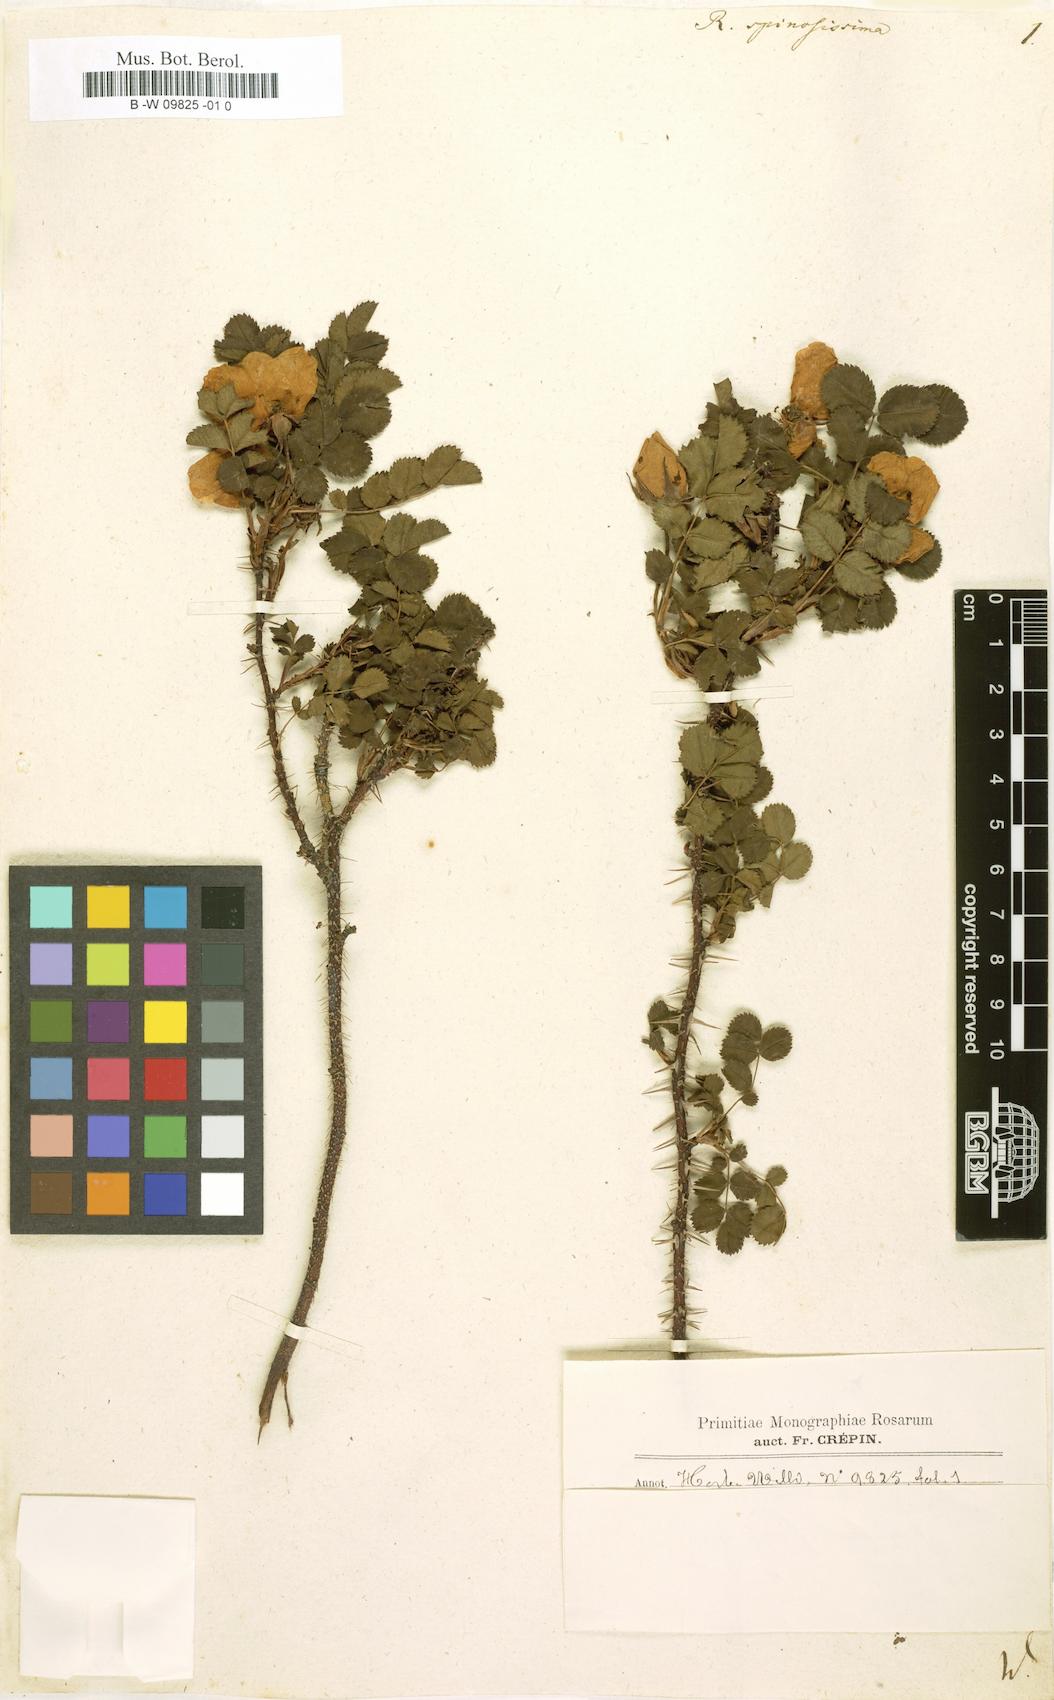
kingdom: Plantae
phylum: Tracheophyta
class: Magnoliopsida
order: Rosales
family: Rosaceae
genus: Rosa
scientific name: Rosa spinosissima
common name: Burnet rose
